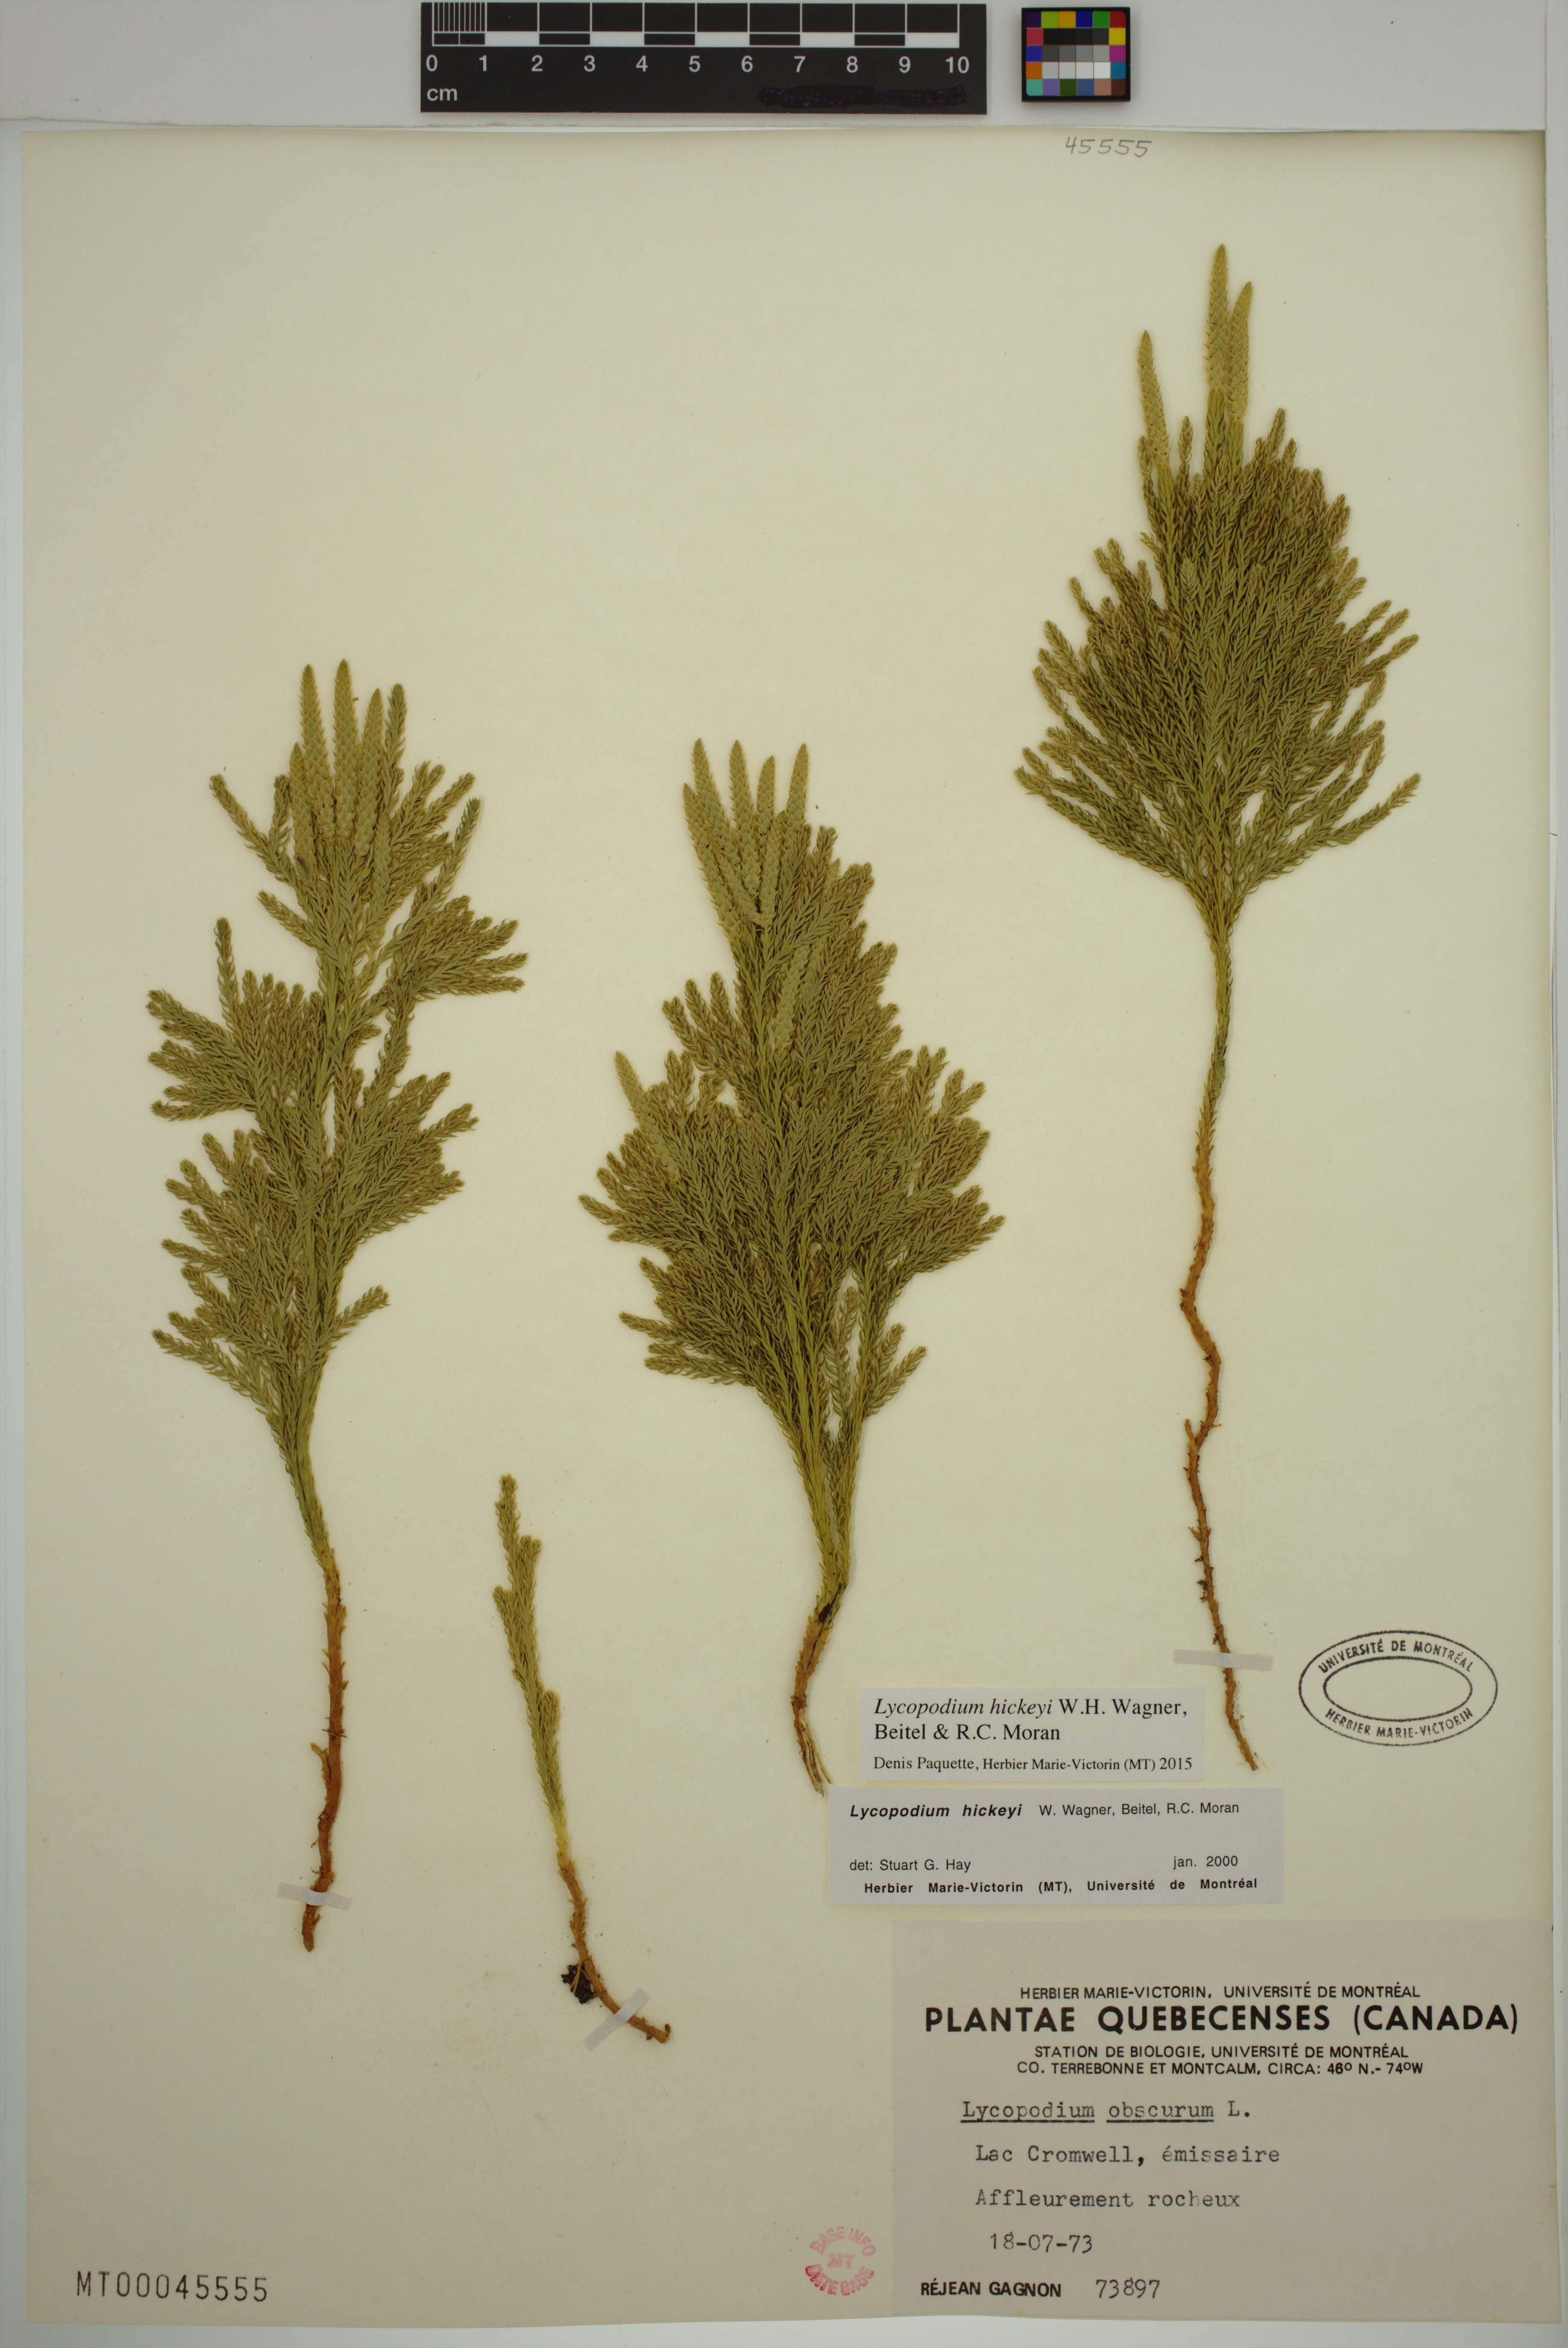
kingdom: Plantae
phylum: Tracheophyta
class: Lycopodiopsida
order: Lycopodiales
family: Lycopodiaceae
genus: Dendrolycopodium
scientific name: Dendrolycopodium hickeyi
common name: Hickey's clubmoss
